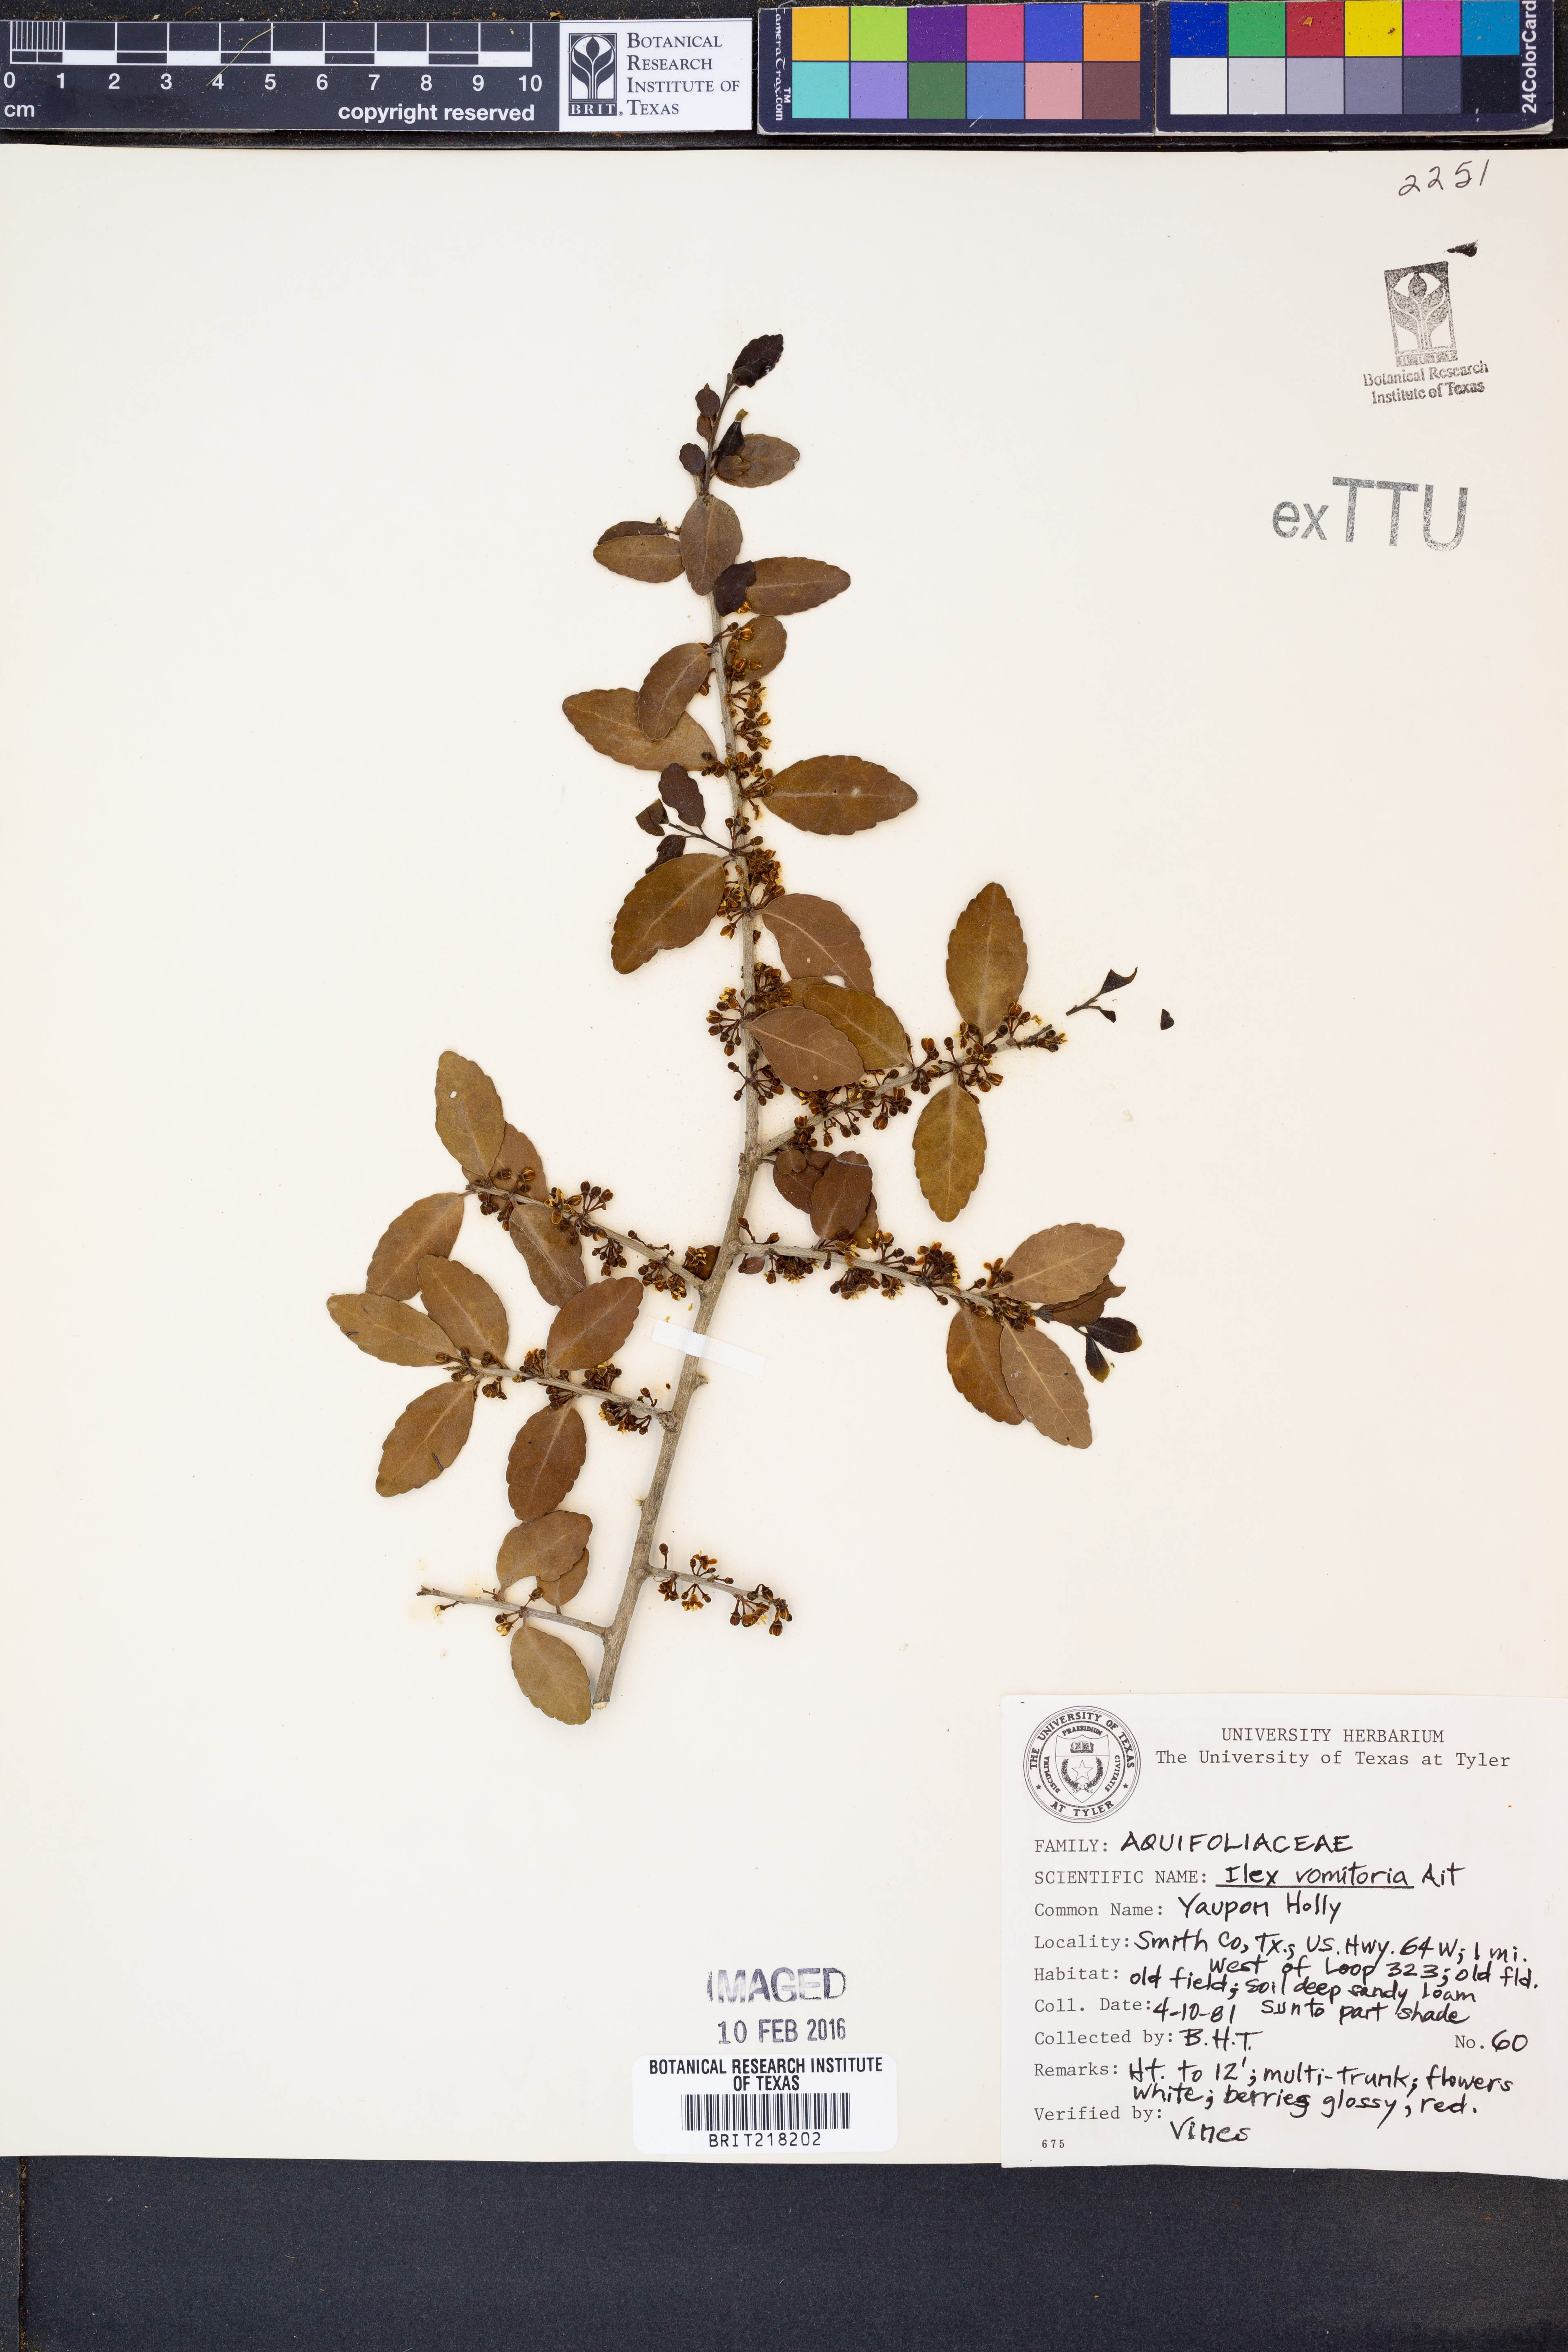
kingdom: Plantae
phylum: Tracheophyta
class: Magnoliopsida
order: Aquifoliales
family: Aquifoliaceae
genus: Ilex
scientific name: Ilex vomitoria
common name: Yaupon holly
